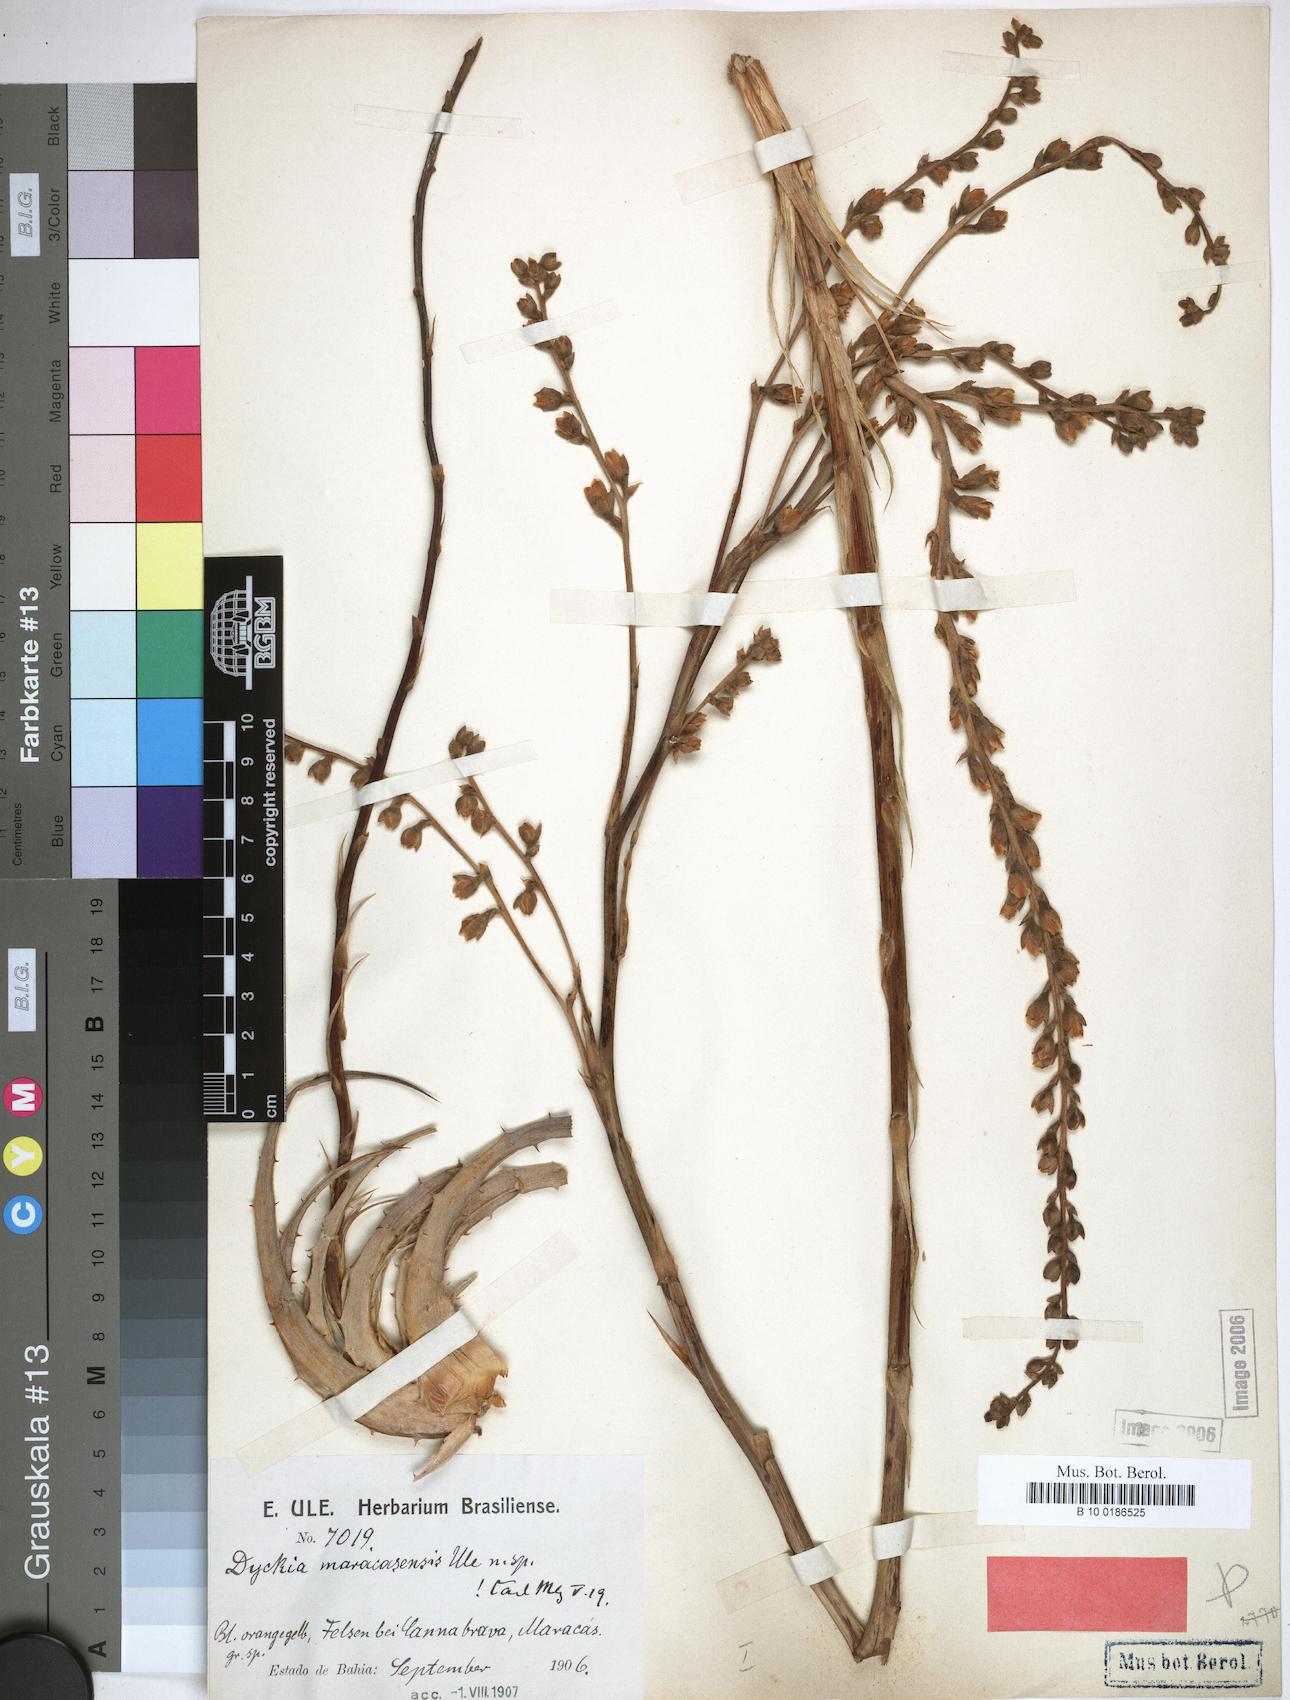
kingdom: Plantae
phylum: Tracheophyta
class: Liliopsida
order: Poales
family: Bromeliaceae
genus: Dyckia
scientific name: Dyckia maracasensis
